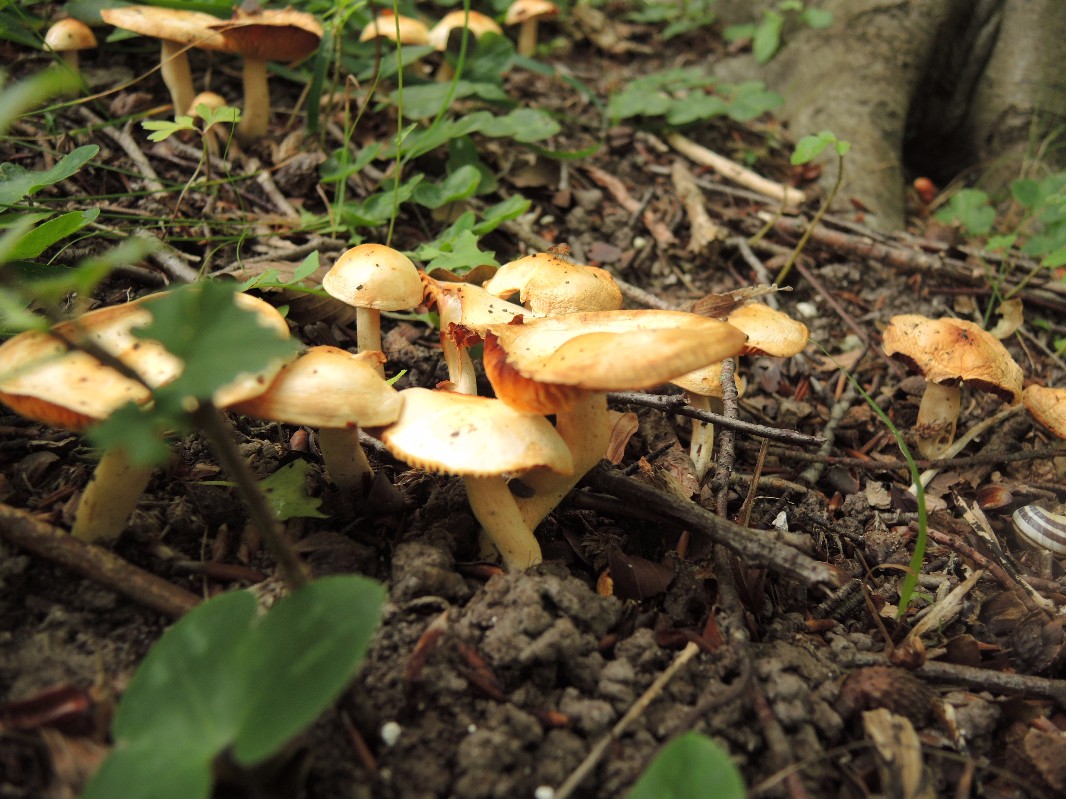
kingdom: Fungi
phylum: Basidiomycota
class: Agaricomycetes
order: Agaricales
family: Hygrophoraceae
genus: Hygrophorus
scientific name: Hygrophorus discoxanthus
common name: ildelugtende sneglehat
